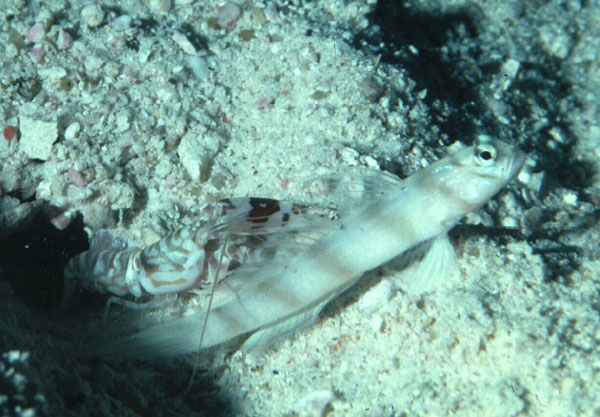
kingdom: Animalia
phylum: Chordata
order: Perciformes
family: Gobiidae
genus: Amblyeleotris
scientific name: Amblyeleotris diagonalis
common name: Diagonal shrimp goby
